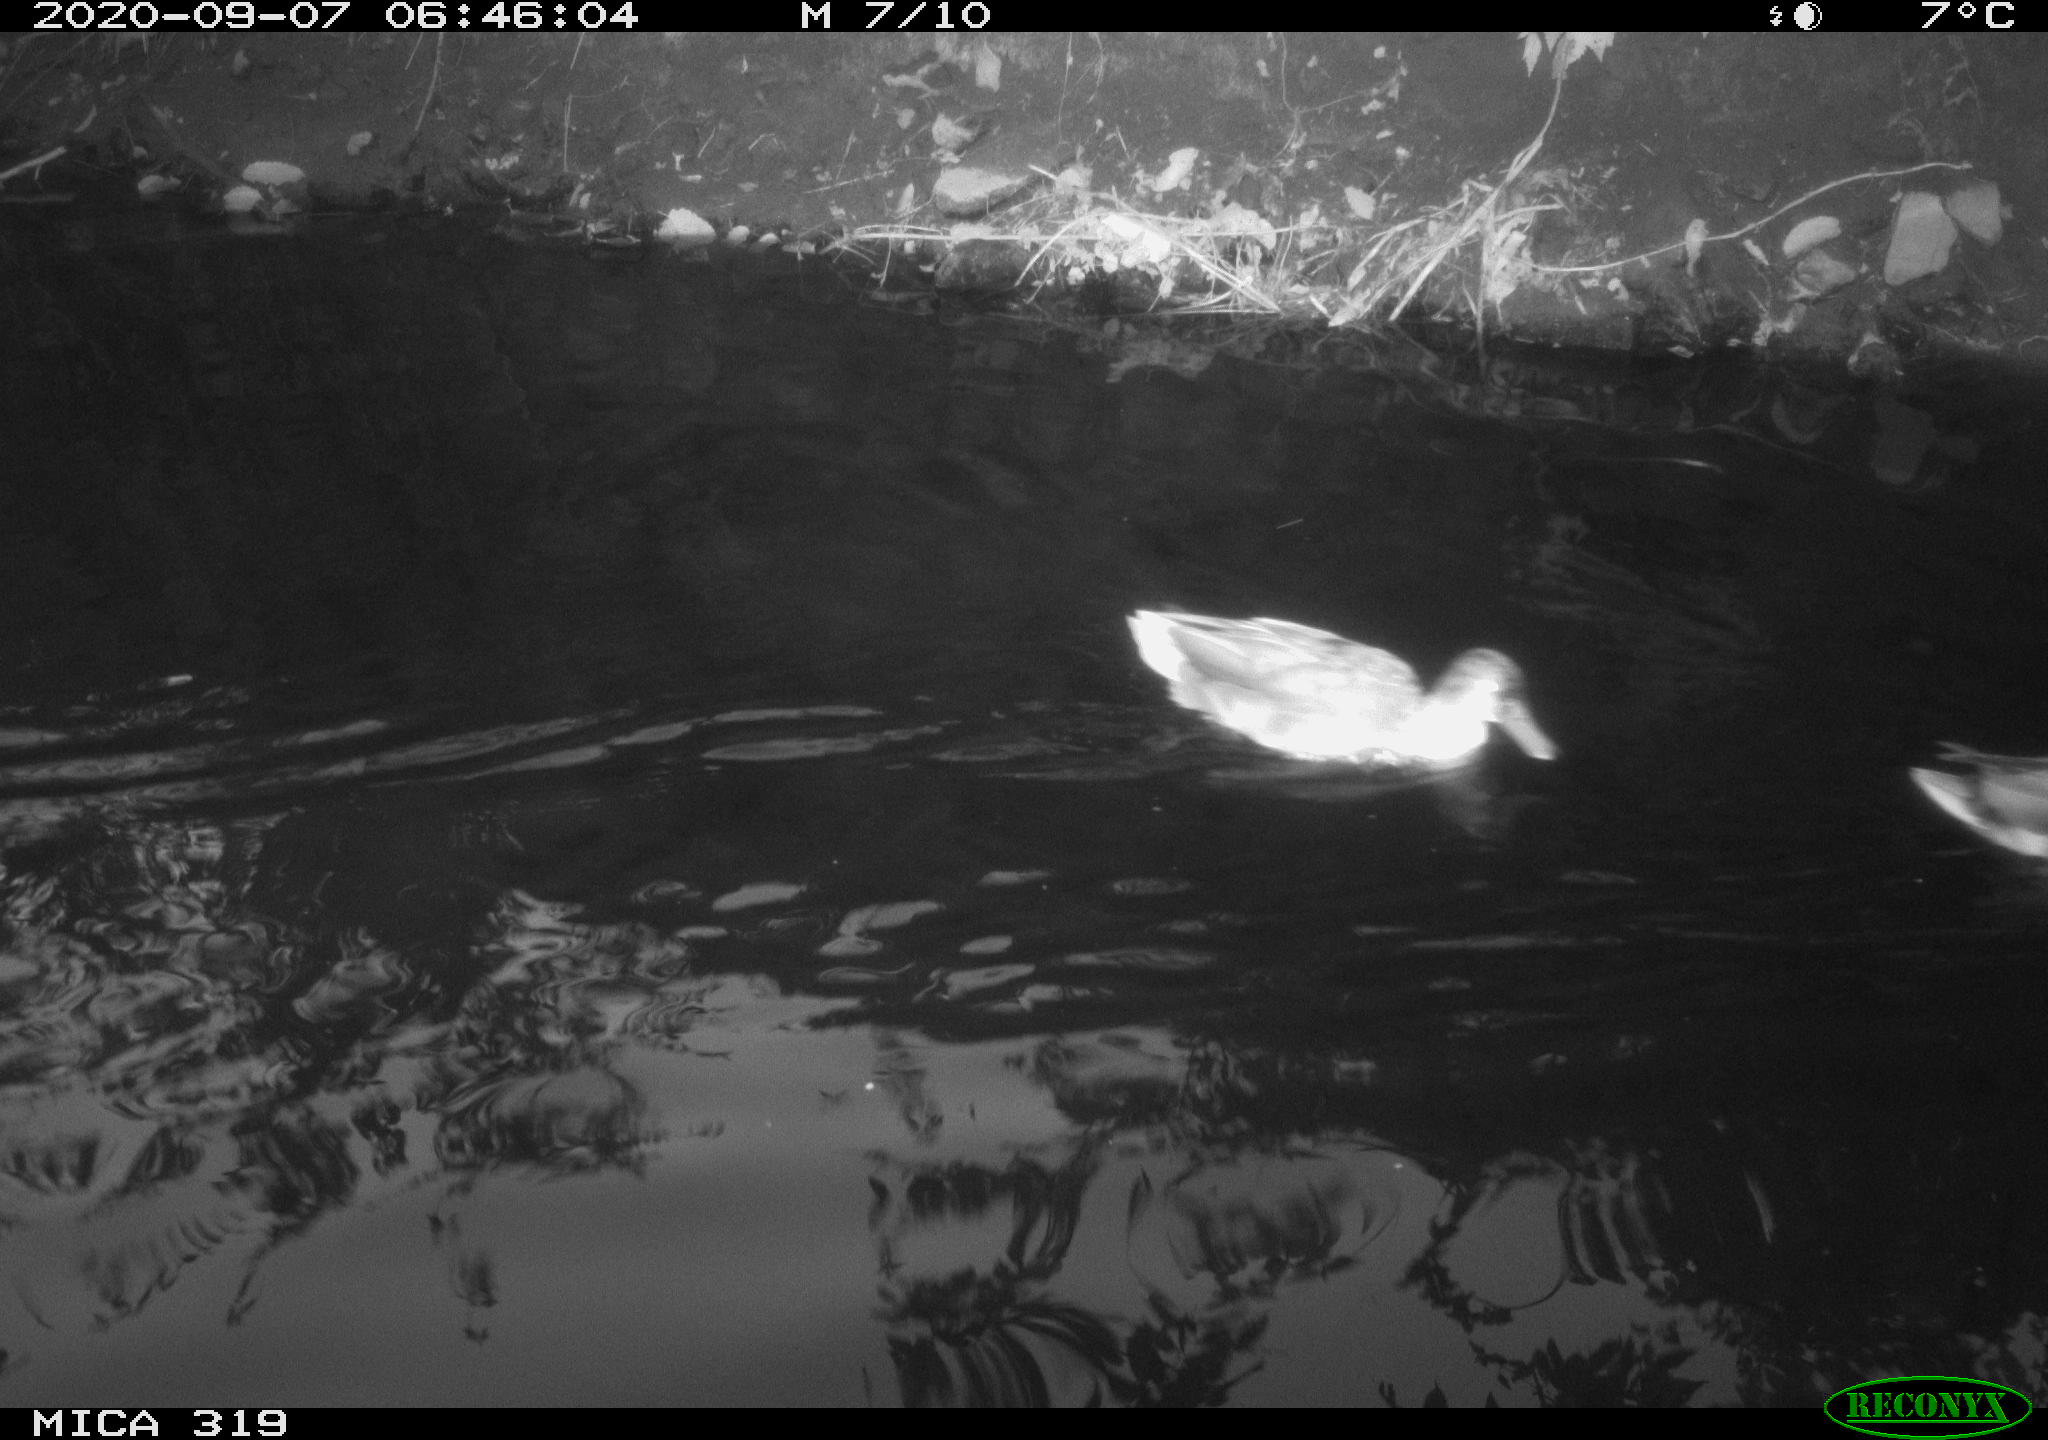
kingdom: Animalia
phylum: Chordata
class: Aves
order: Anseriformes
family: Anatidae
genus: Anas
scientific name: Anas platyrhynchos
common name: Mallard
